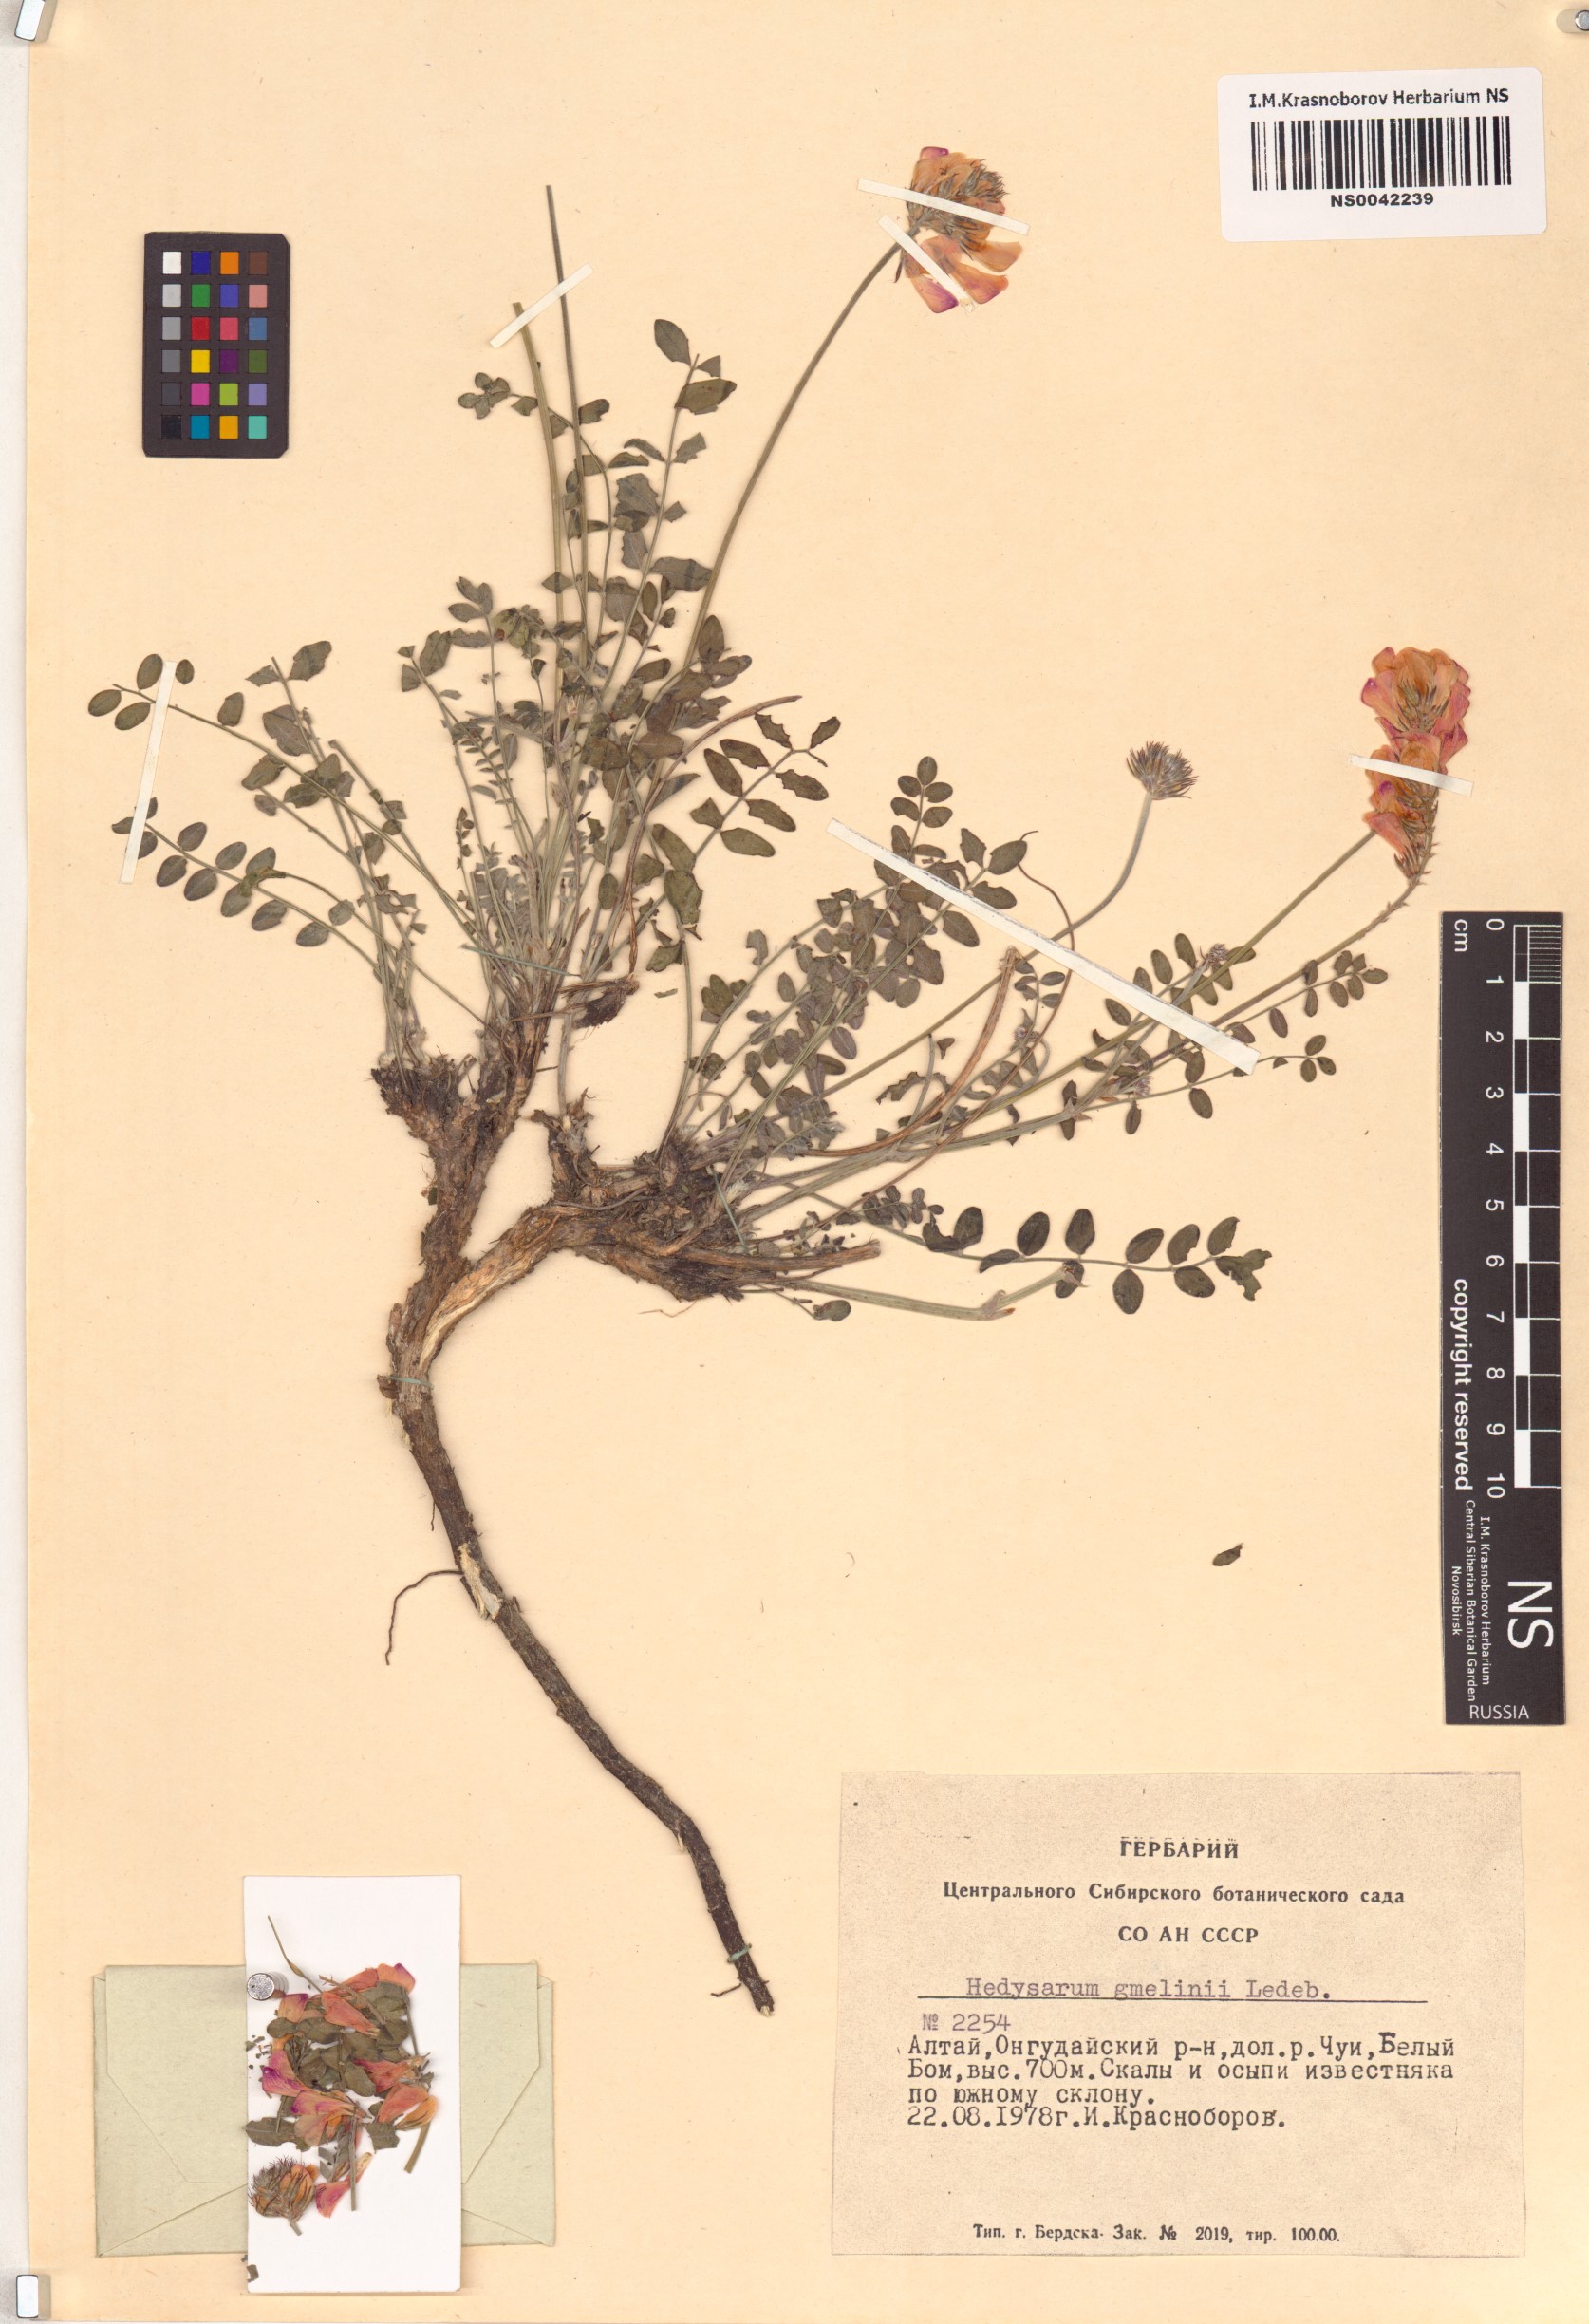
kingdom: Plantae
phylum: Tracheophyta
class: Magnoliopsida
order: Fabales
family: Fabaceae
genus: Hedysarum
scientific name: Hedysarum gmelinii
